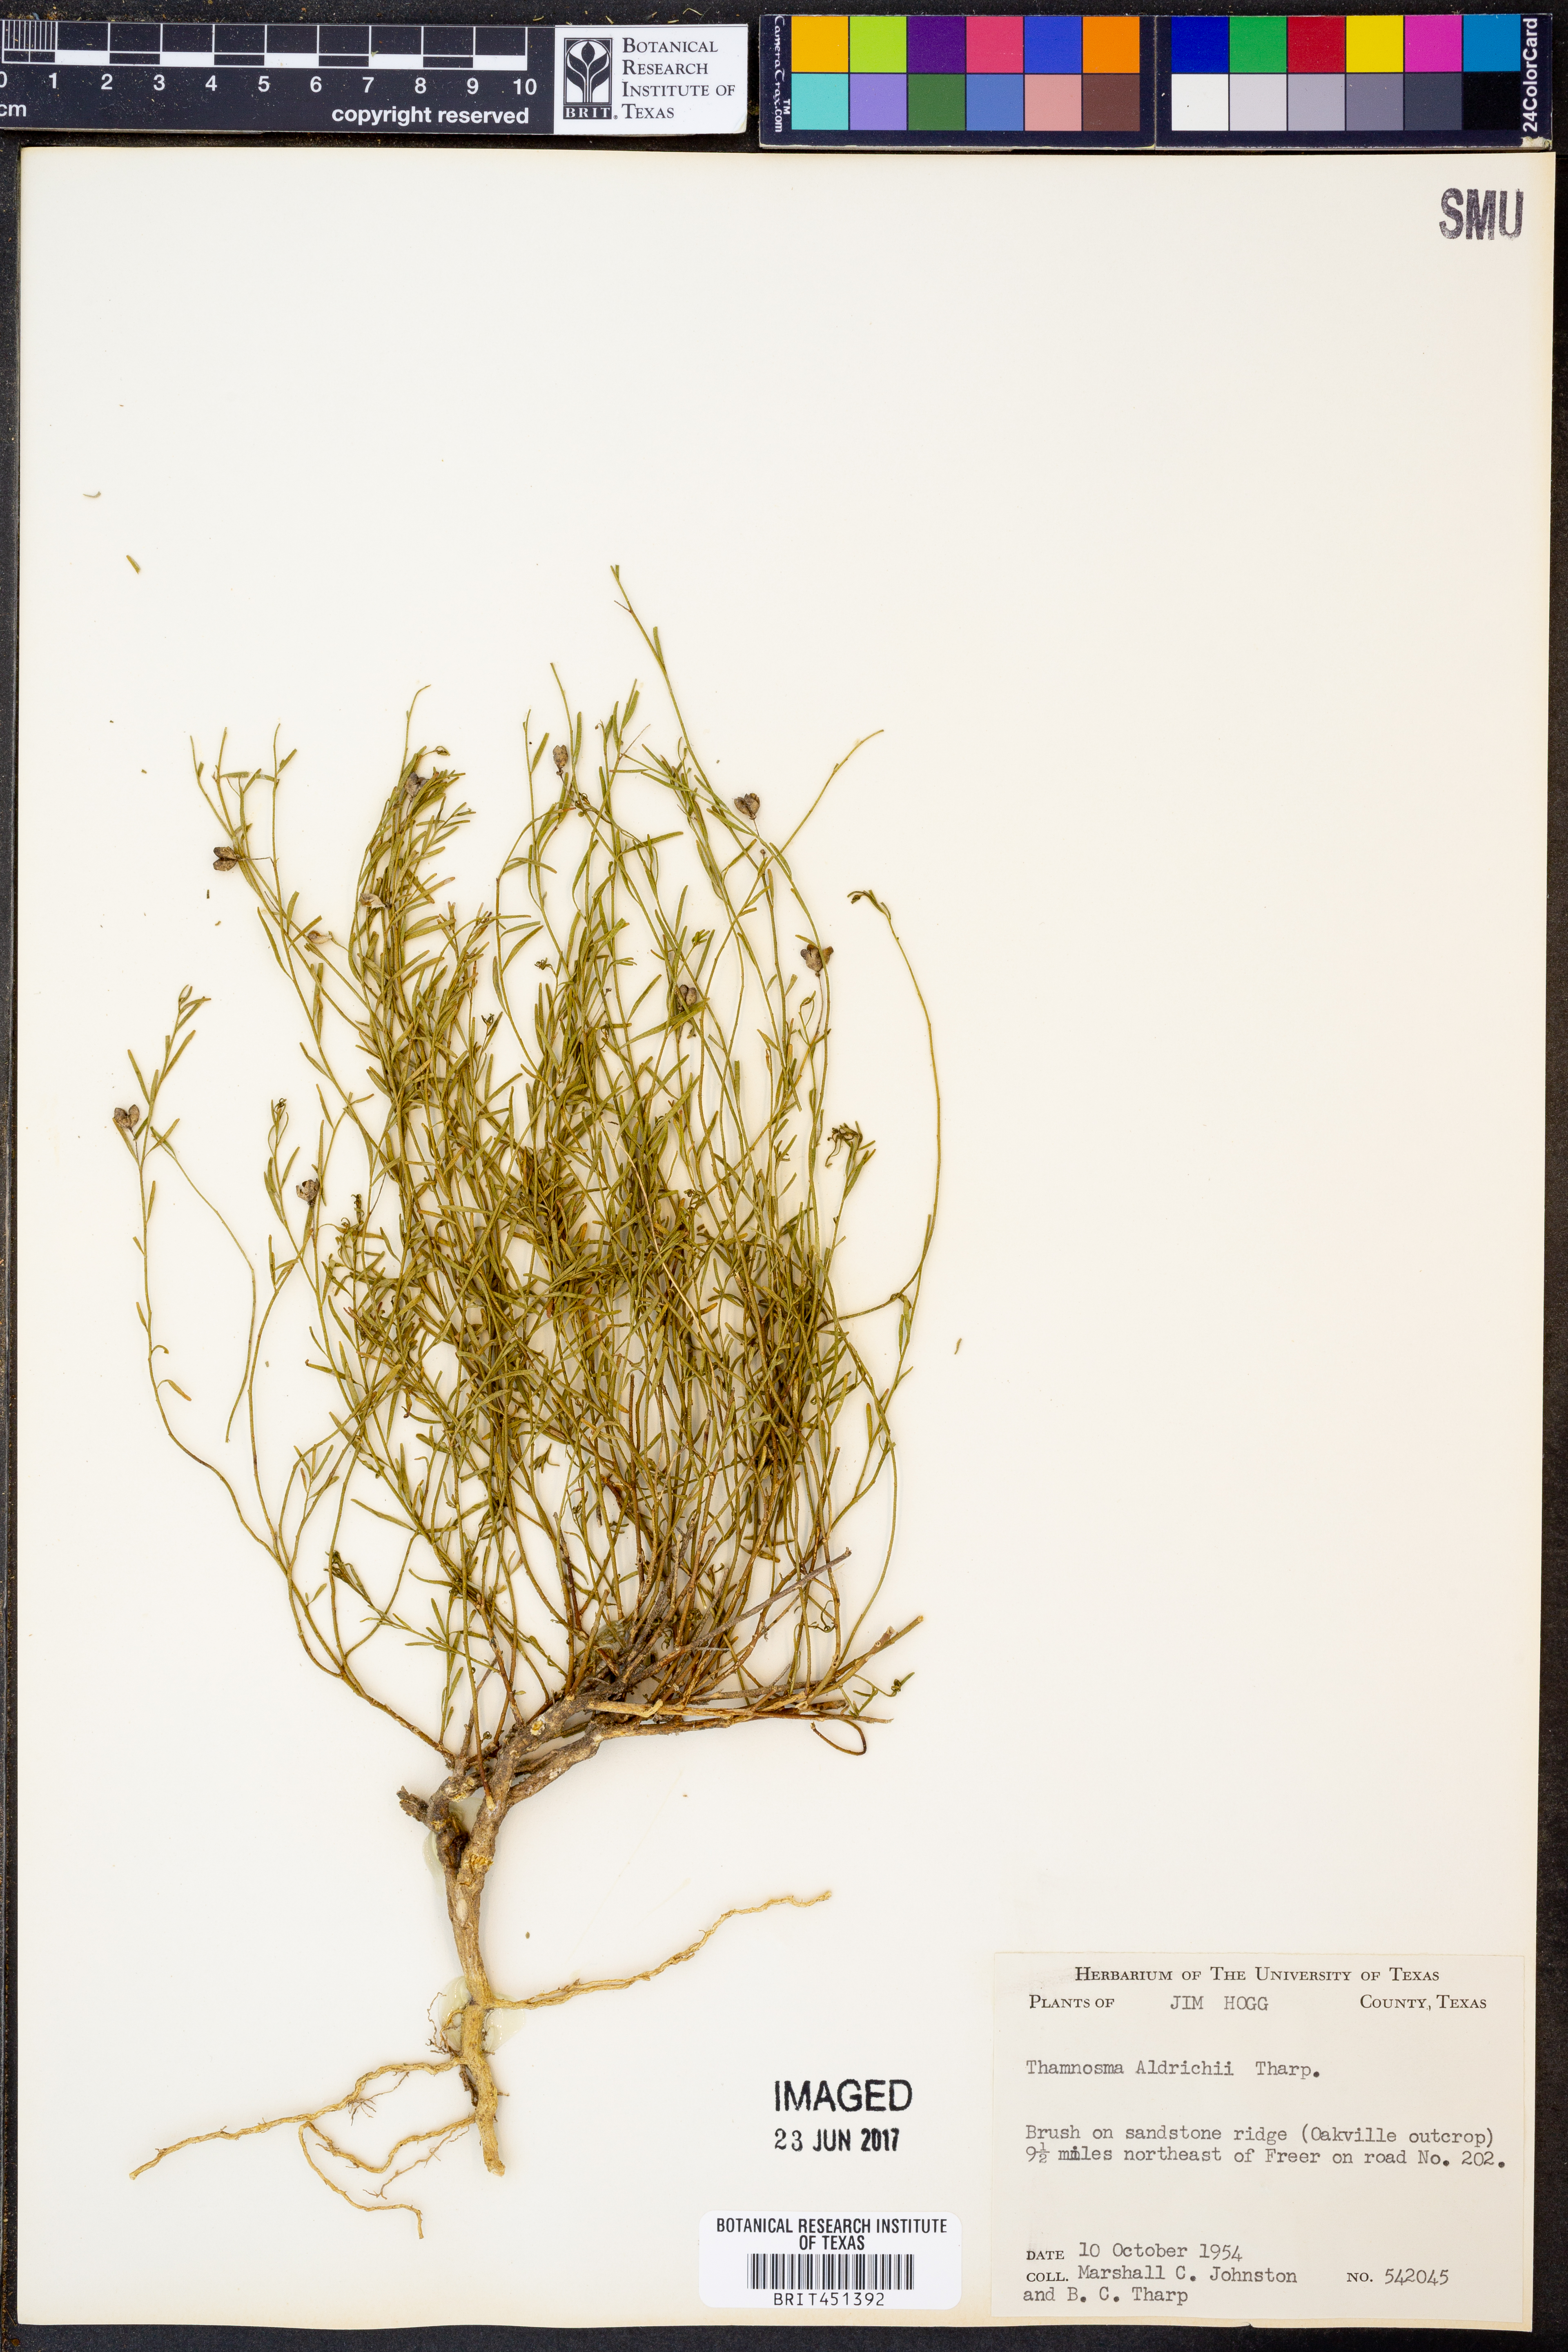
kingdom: Plantae
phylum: Tracheophyta
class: Magnoliopsida
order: Sapindales
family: Rutaceae
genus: Thamnosma
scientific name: Thamnosma texana
